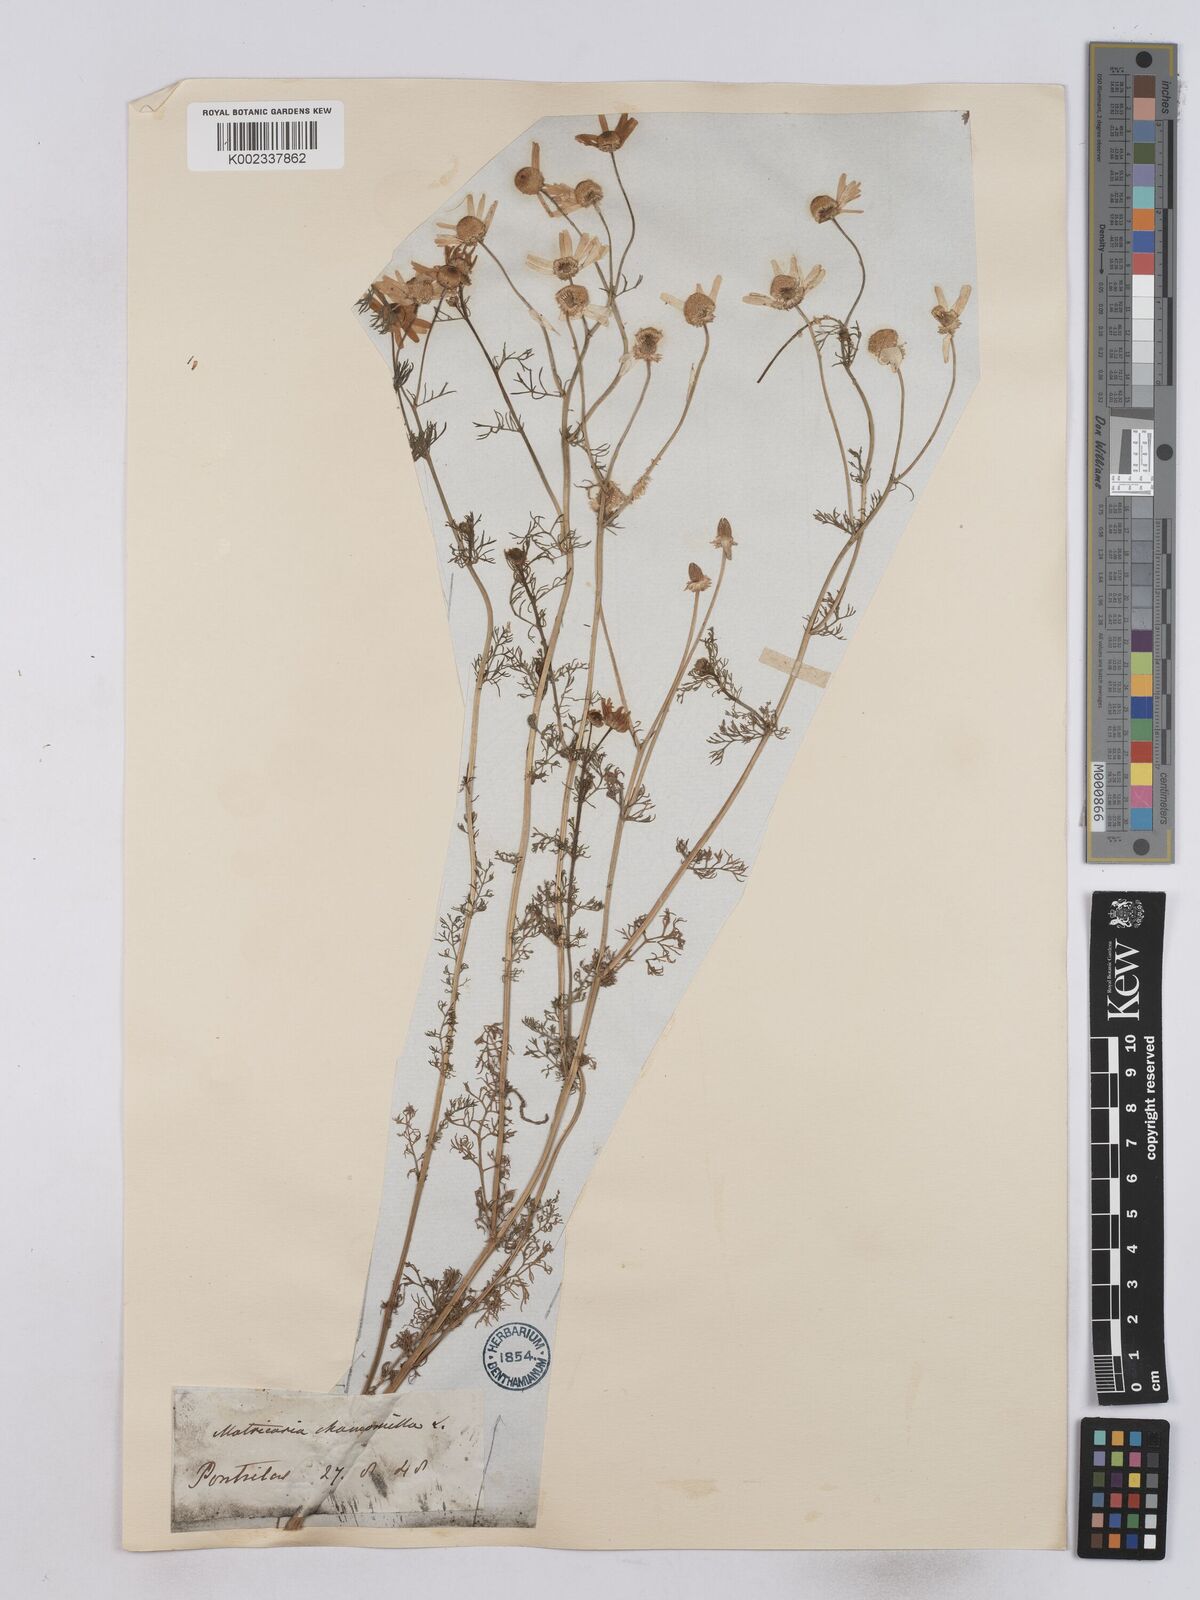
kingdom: Plantae
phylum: Tracheophyta
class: Magnoliopsida
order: Asterales
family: Asteraceae
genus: Matricaria
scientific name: Matricaria chamomilla
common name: Scented mayweed
